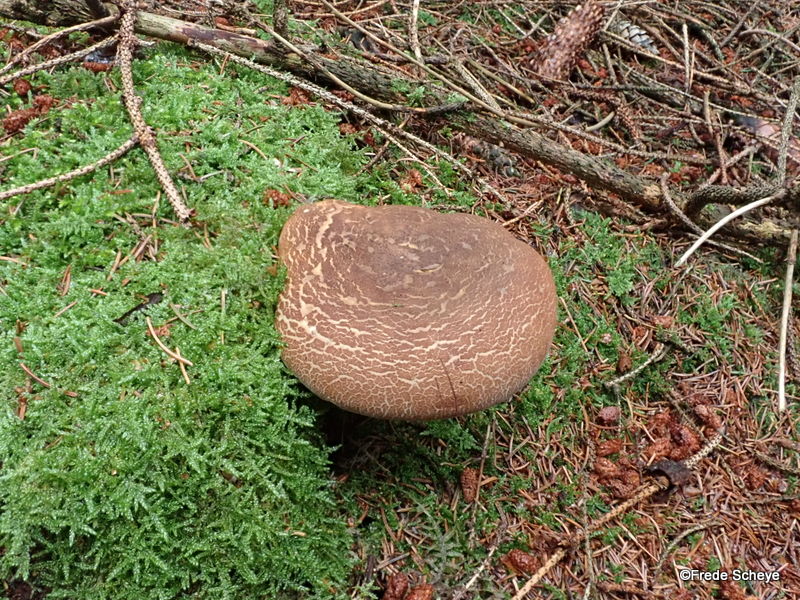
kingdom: Fungi
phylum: Basidiomycota
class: Agaricomycetes
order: Boletales
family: Tapinellaceae
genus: Tapinella
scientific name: Tapinella atrotomentosa
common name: sortfiltet viftesvamp
